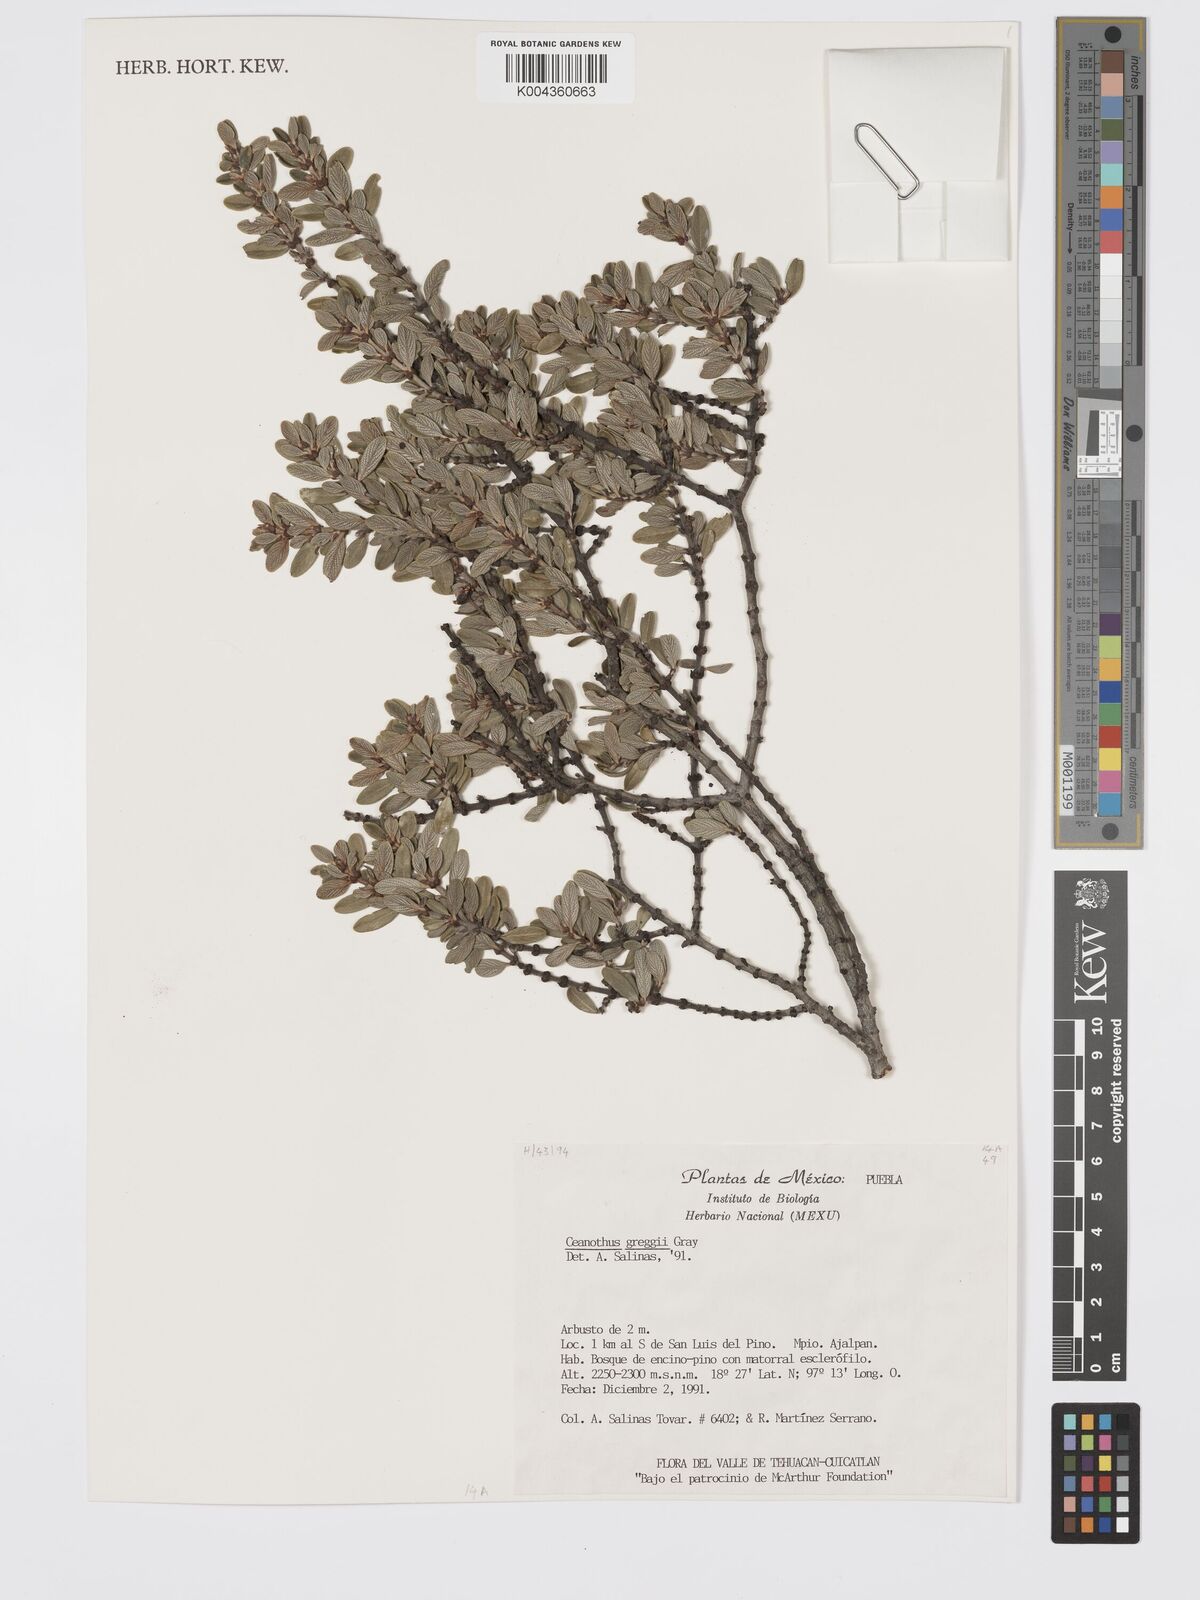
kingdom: Plantae
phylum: Tracheophyta
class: Magnoliopsida
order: Rosales
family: Rhamnaceae
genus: Ceanothus
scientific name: Ceanothus pauciflorus
